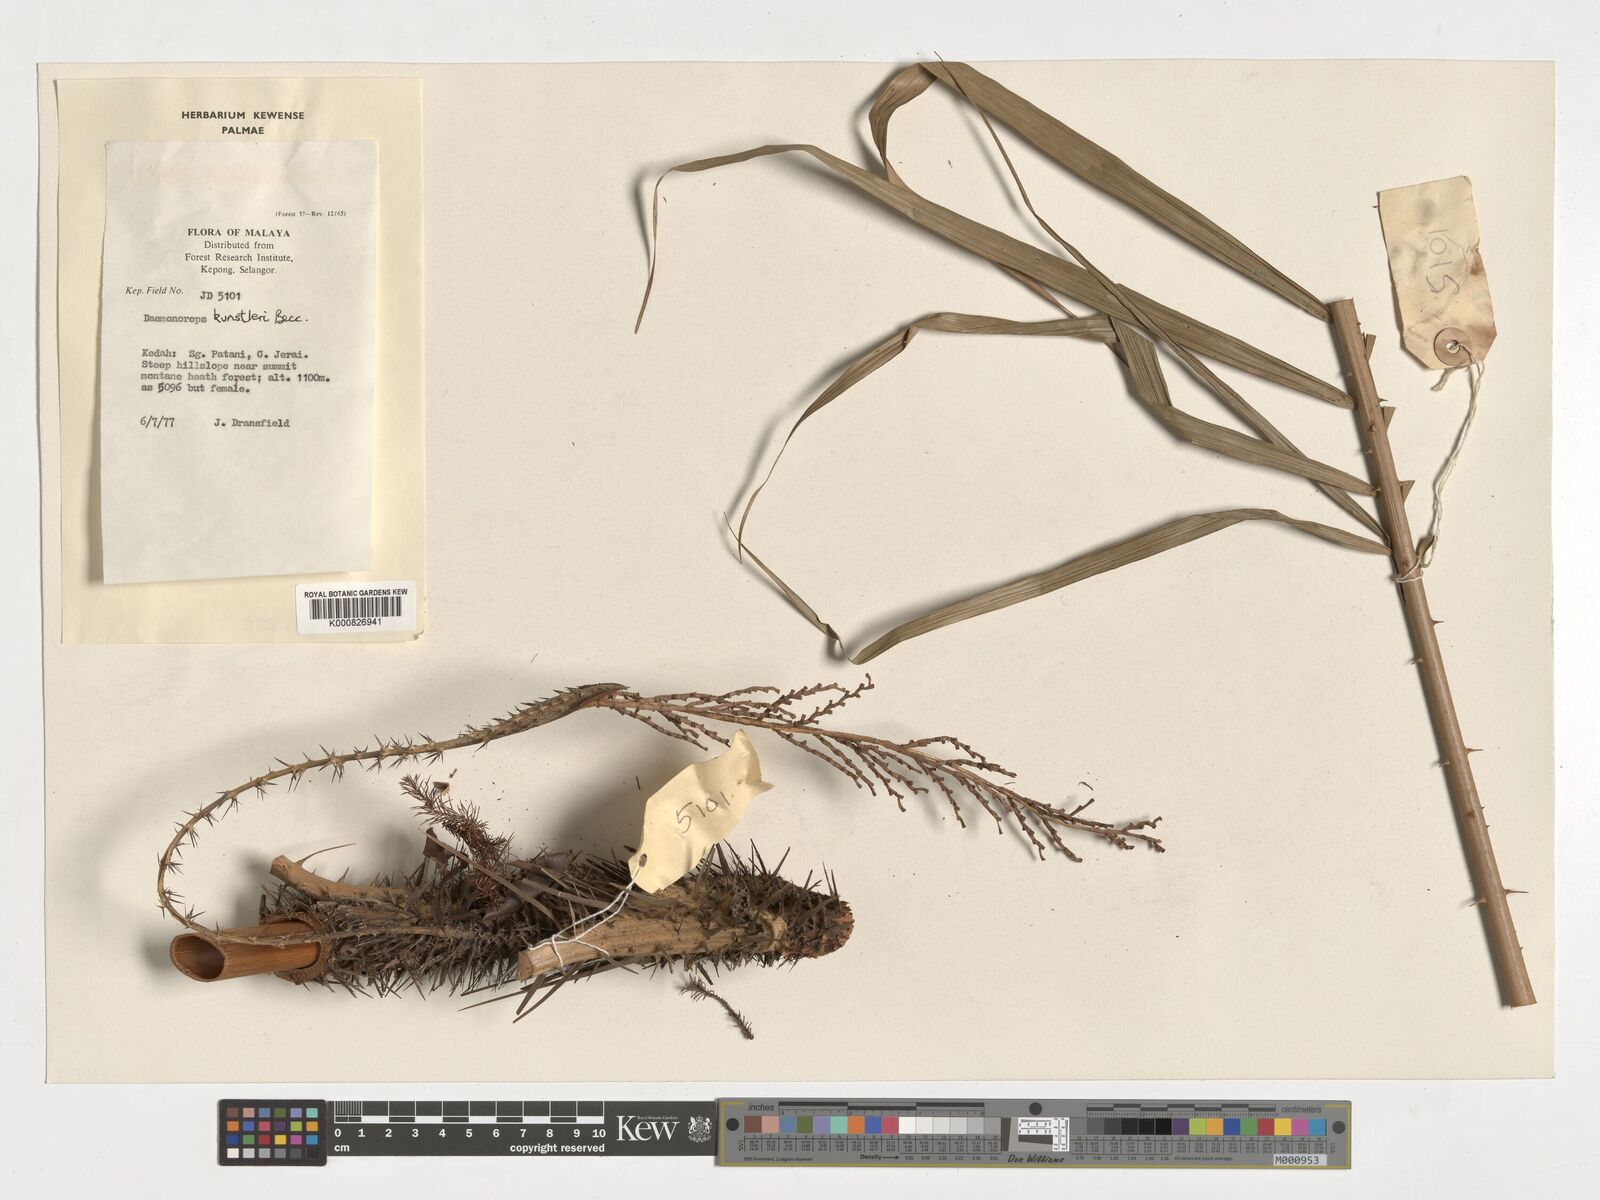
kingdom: Plantae
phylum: Tracheophyta
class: Liliopsida
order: Arecales
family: Arecaceae
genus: Calamus
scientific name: Calamus kunstleri
